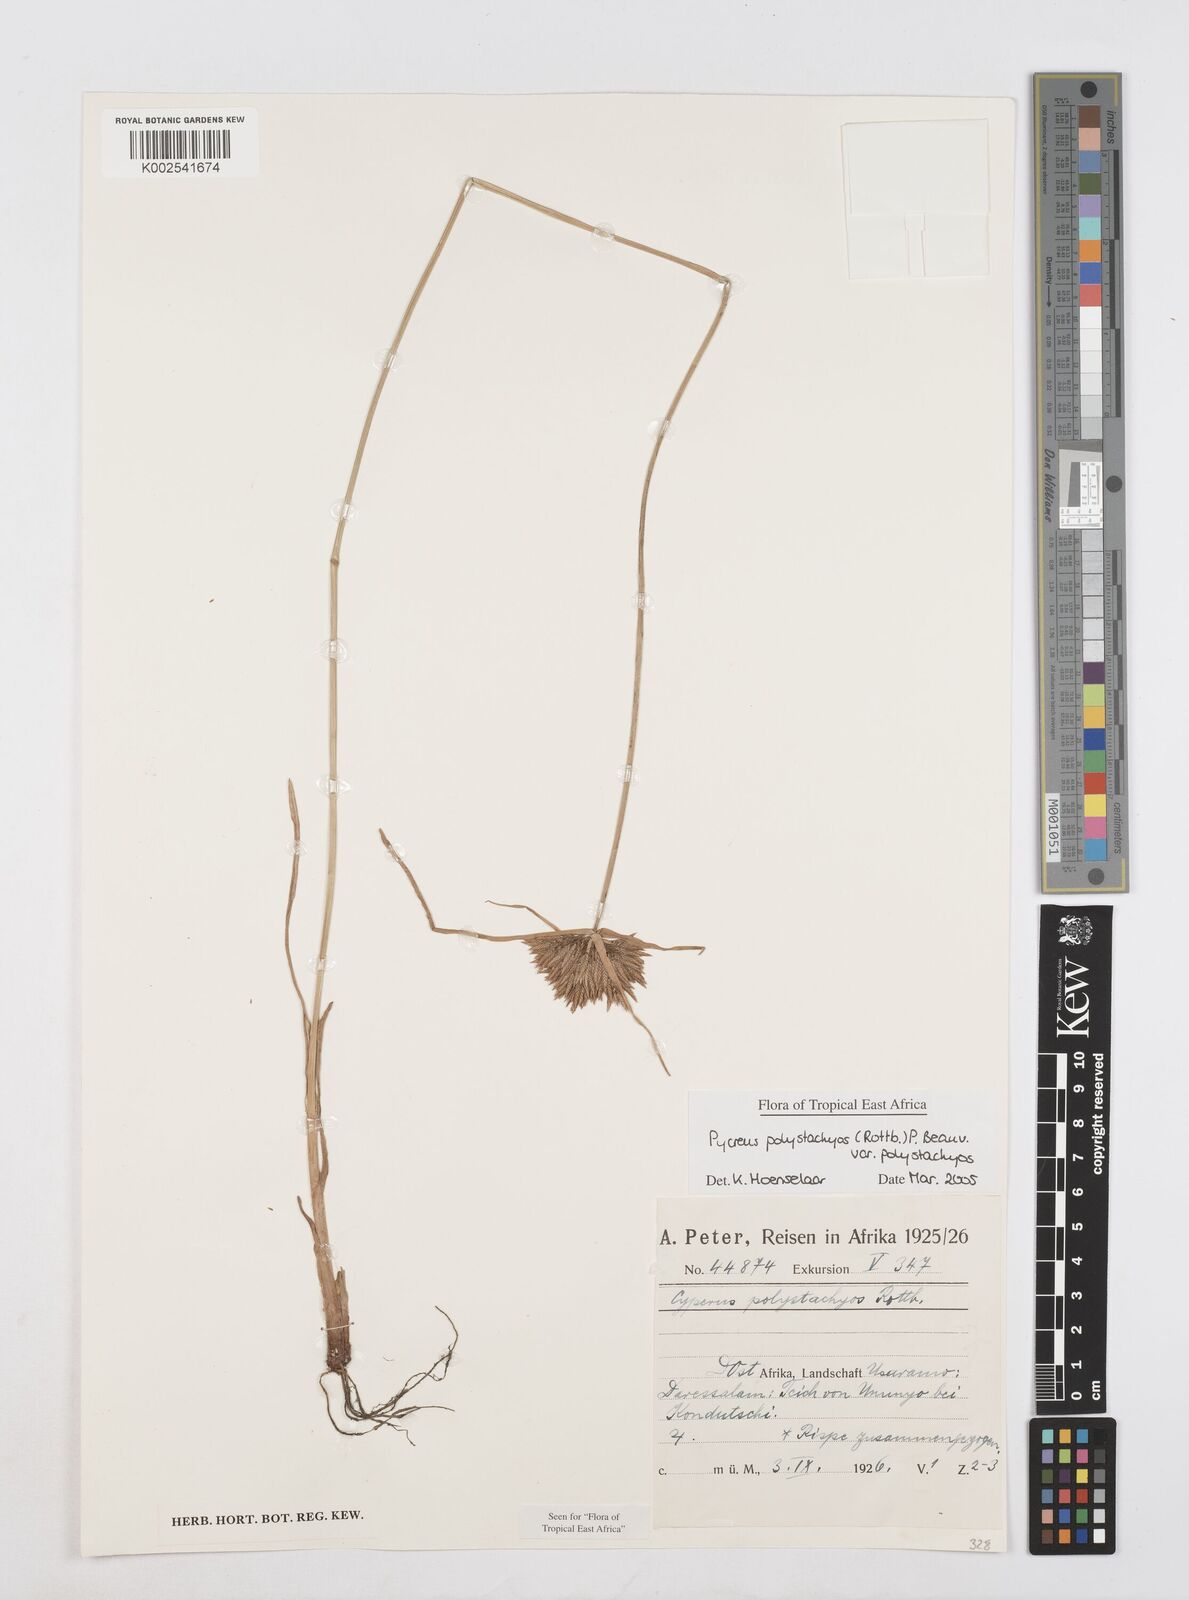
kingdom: Plantae
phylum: Tracheophyta
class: Liliopsida
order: Poales
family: Cyperaceae
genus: Cyperus
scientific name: Cyperus polystachyos
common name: Bunchy flat sedge
